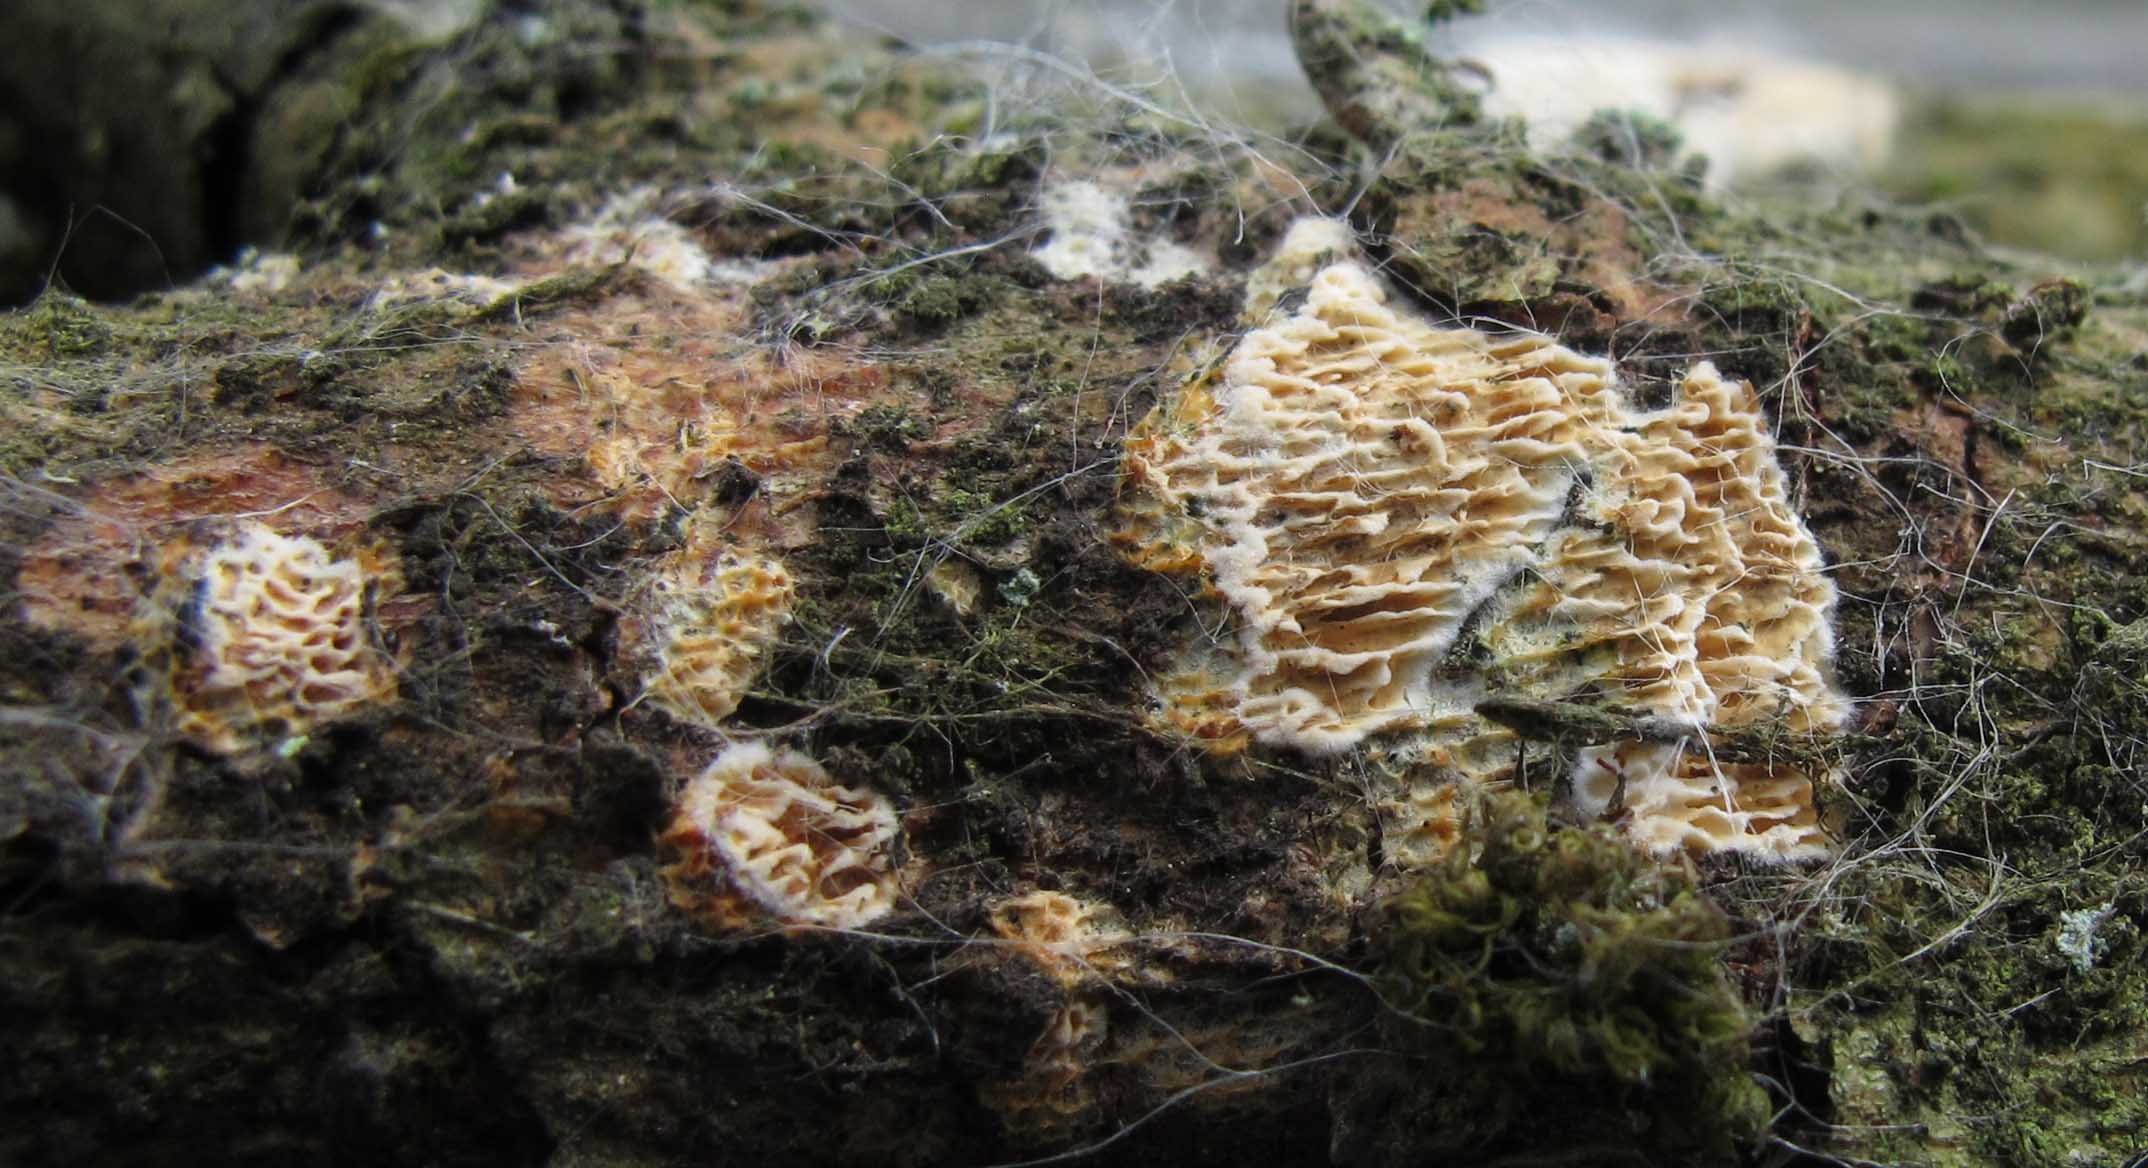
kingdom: Fungi
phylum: Basidiomycota
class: Agaricomycetes
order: Polyporales
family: Fomitopsidaceae
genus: Brunneoporus
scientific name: Brunneoporus kuzyanus
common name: brunlig sejporesvamp
